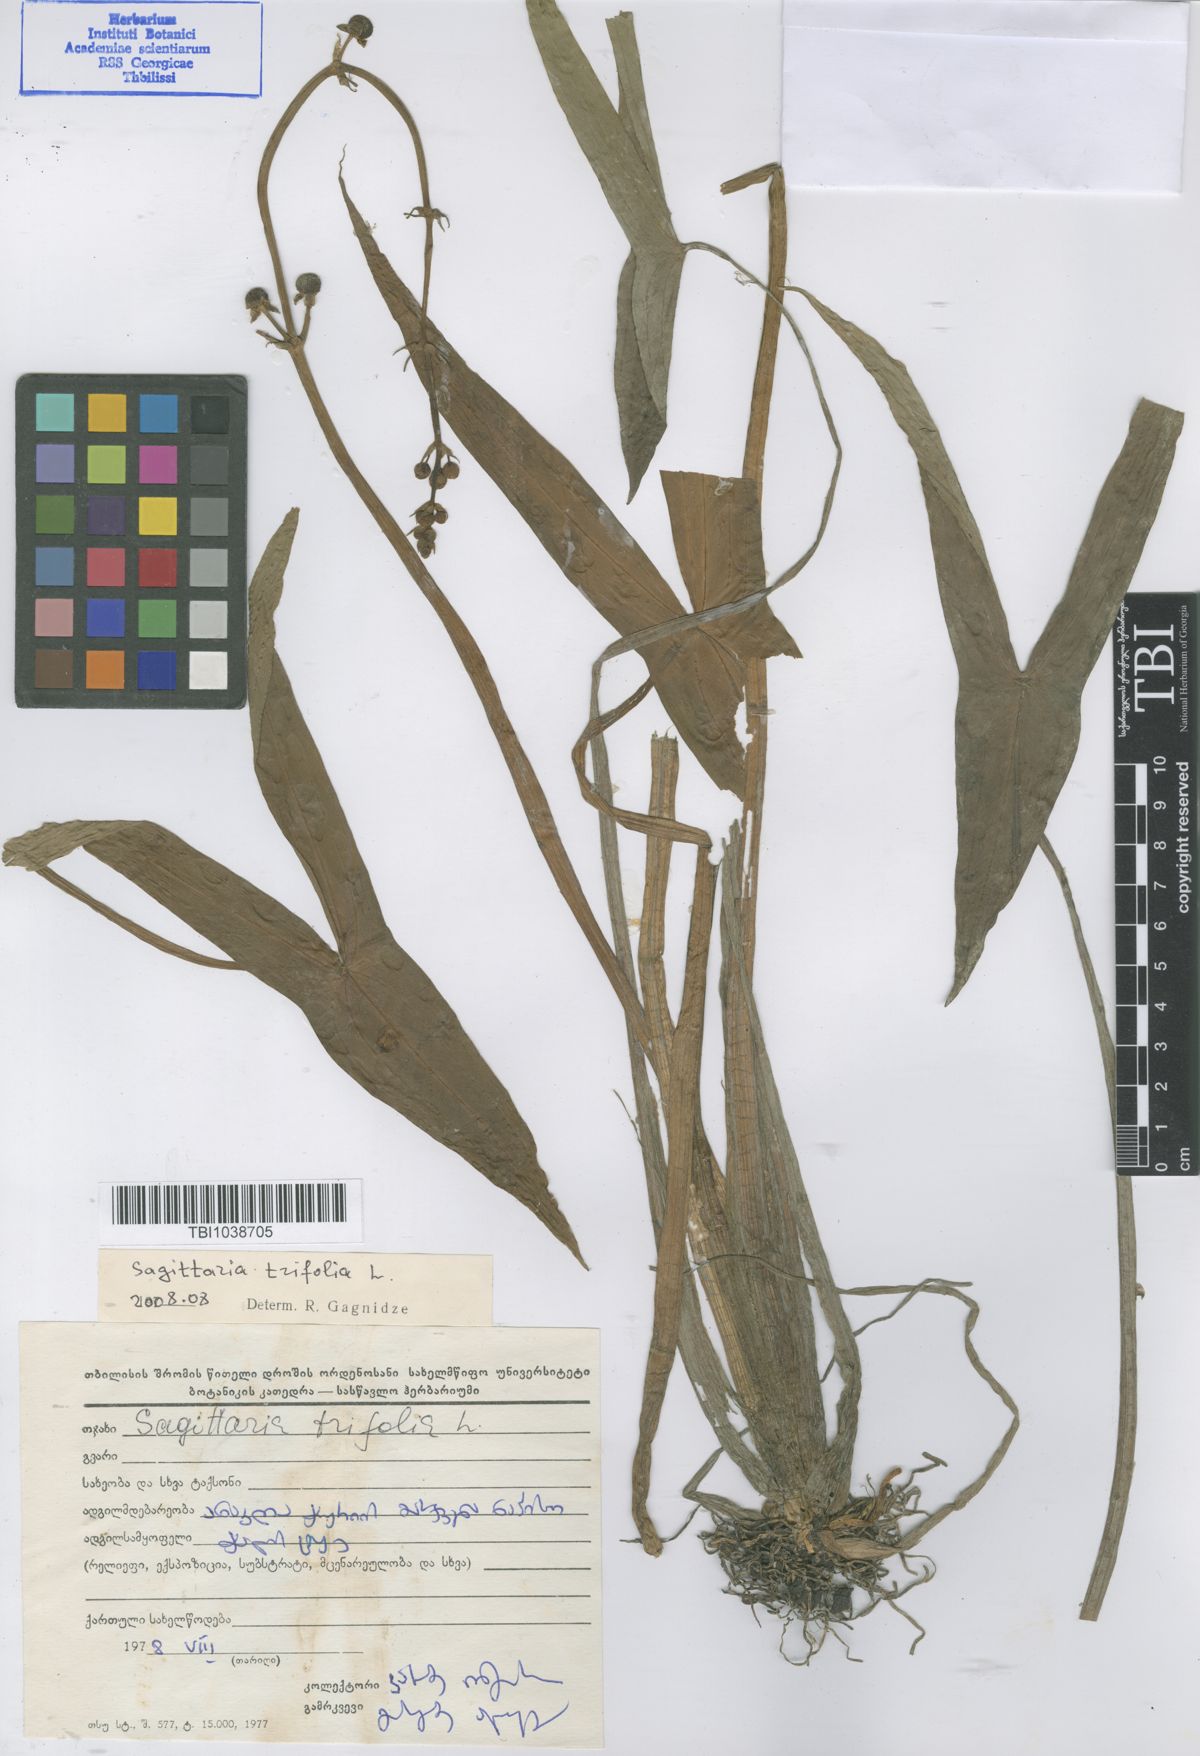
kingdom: Plantae
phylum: Tracheophyta
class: Liliopsida
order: Alismatales
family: Alismataceae
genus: Sagittaria
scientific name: Sagittaria trifolia
